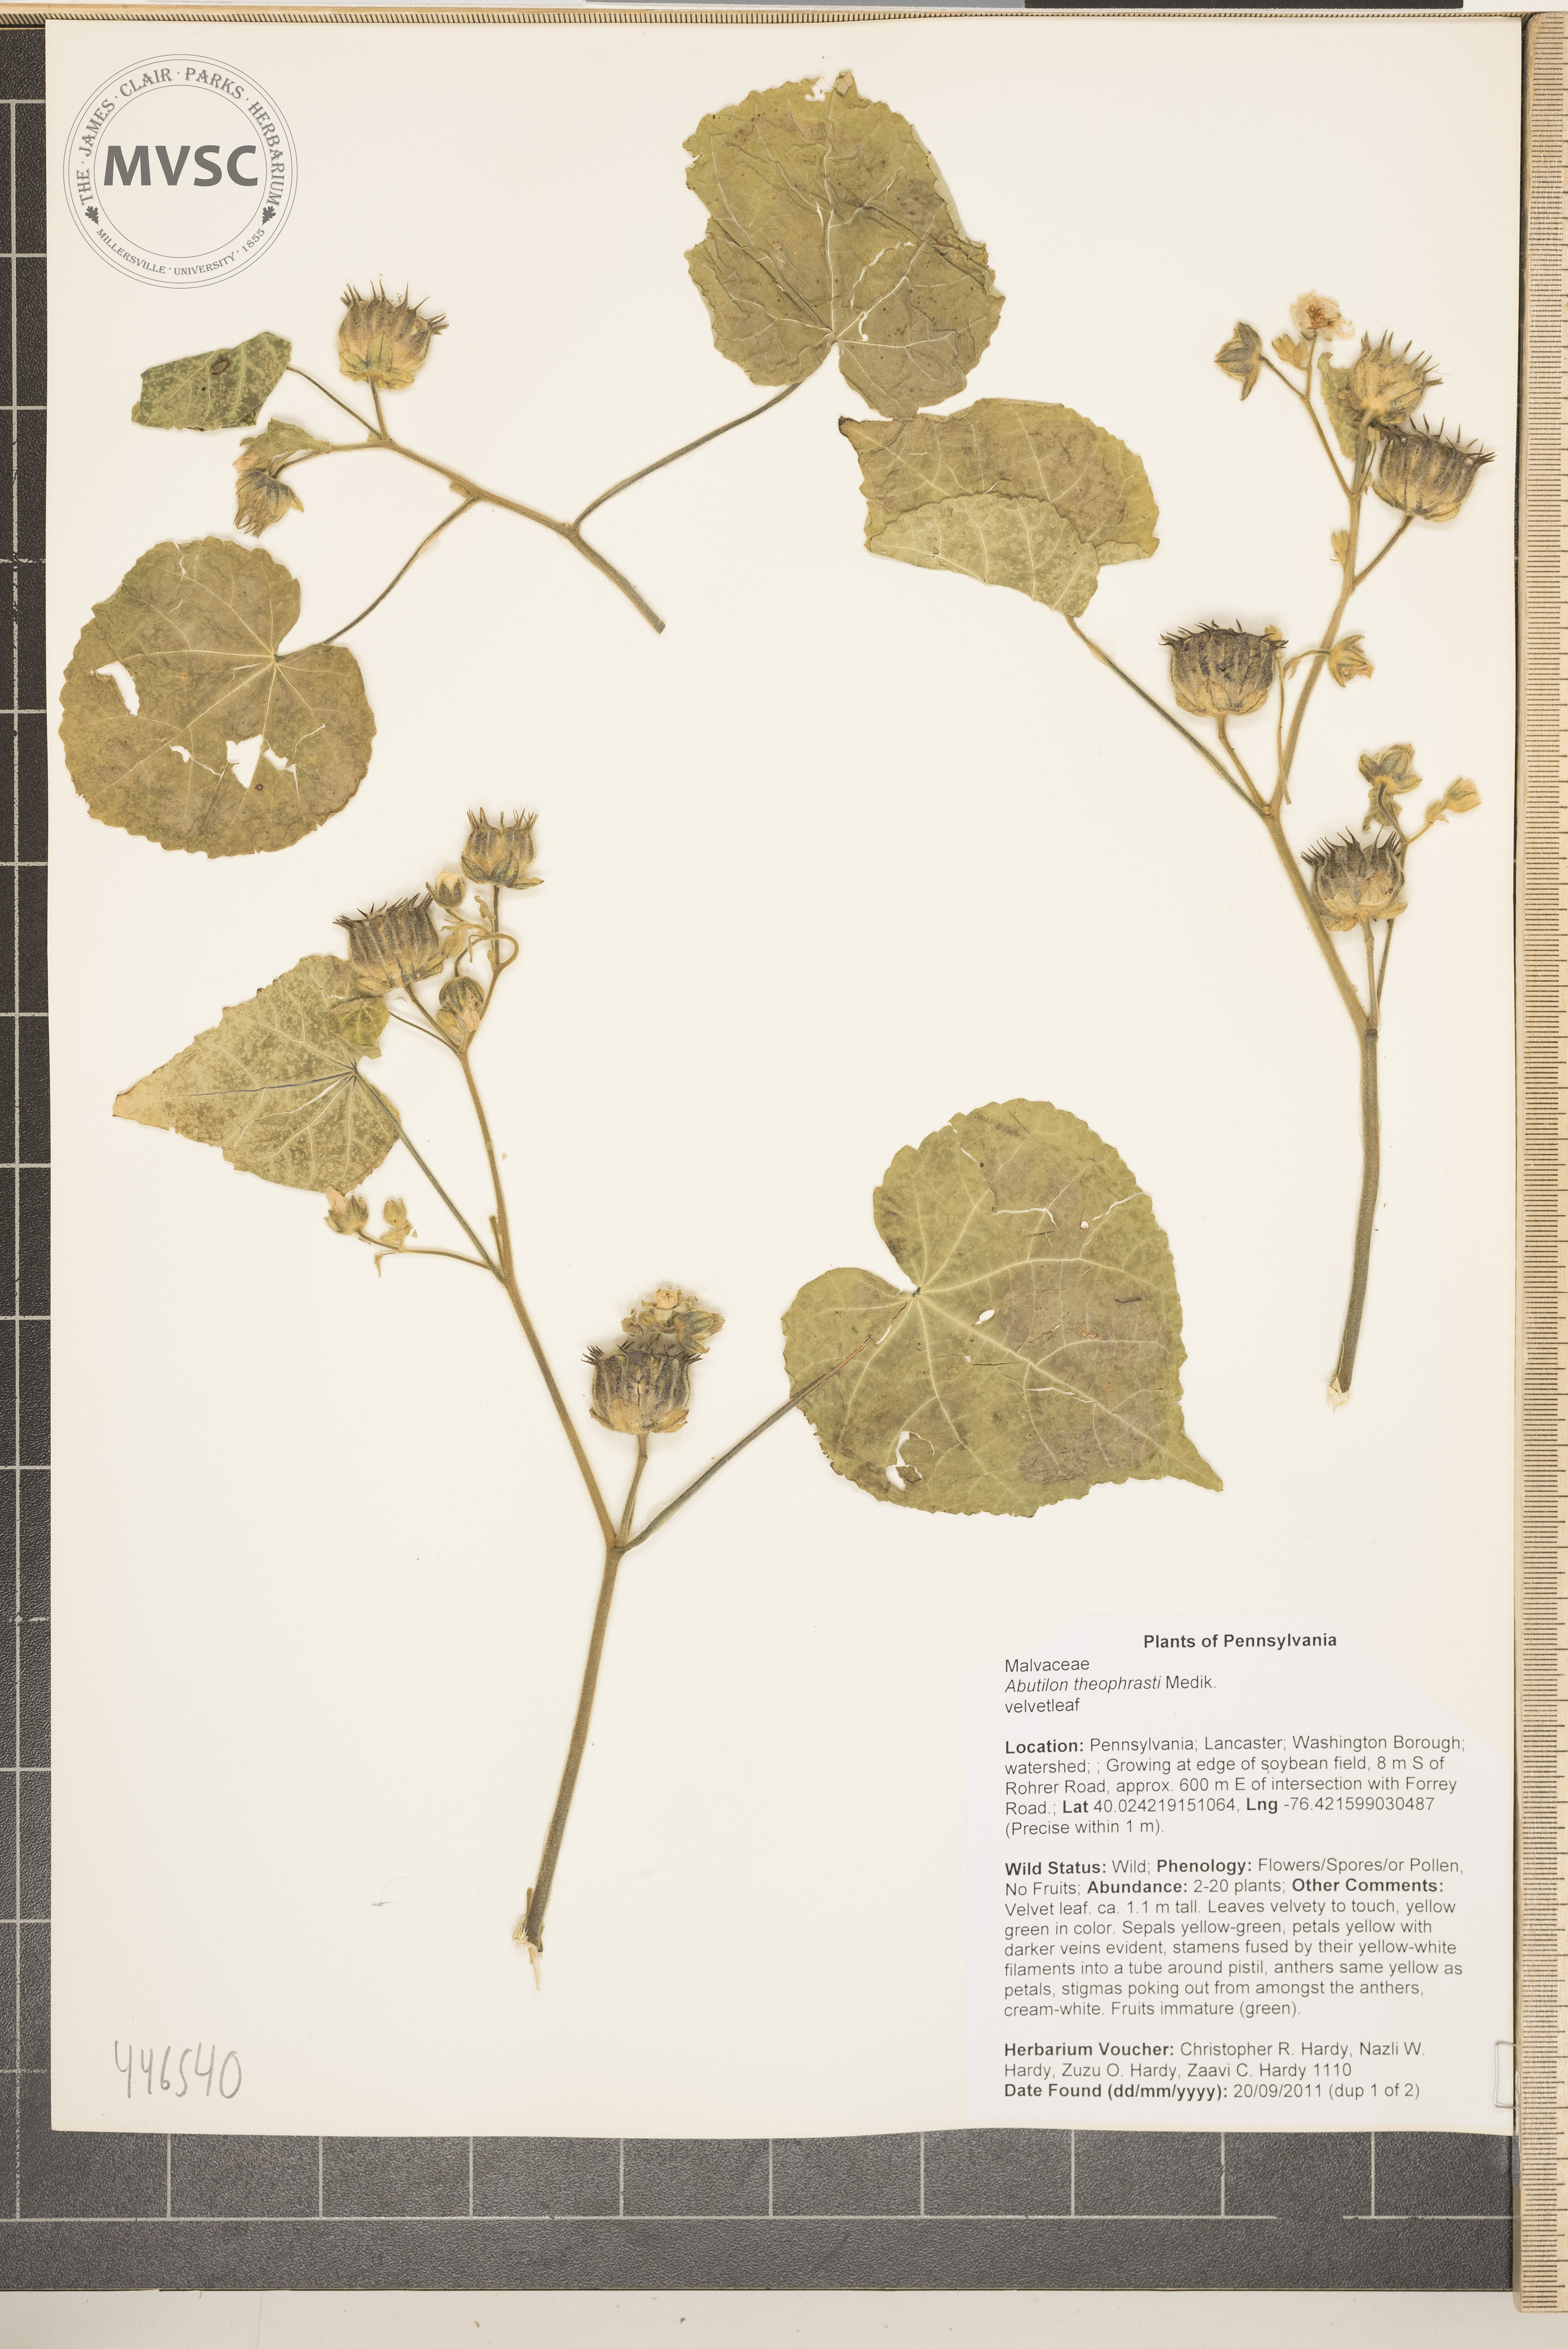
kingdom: Plantae
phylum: Tracheophyta
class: Magnoliopsida
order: Malvales
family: Malvaceae
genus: Abutilon
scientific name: Abutilon theophrasti
